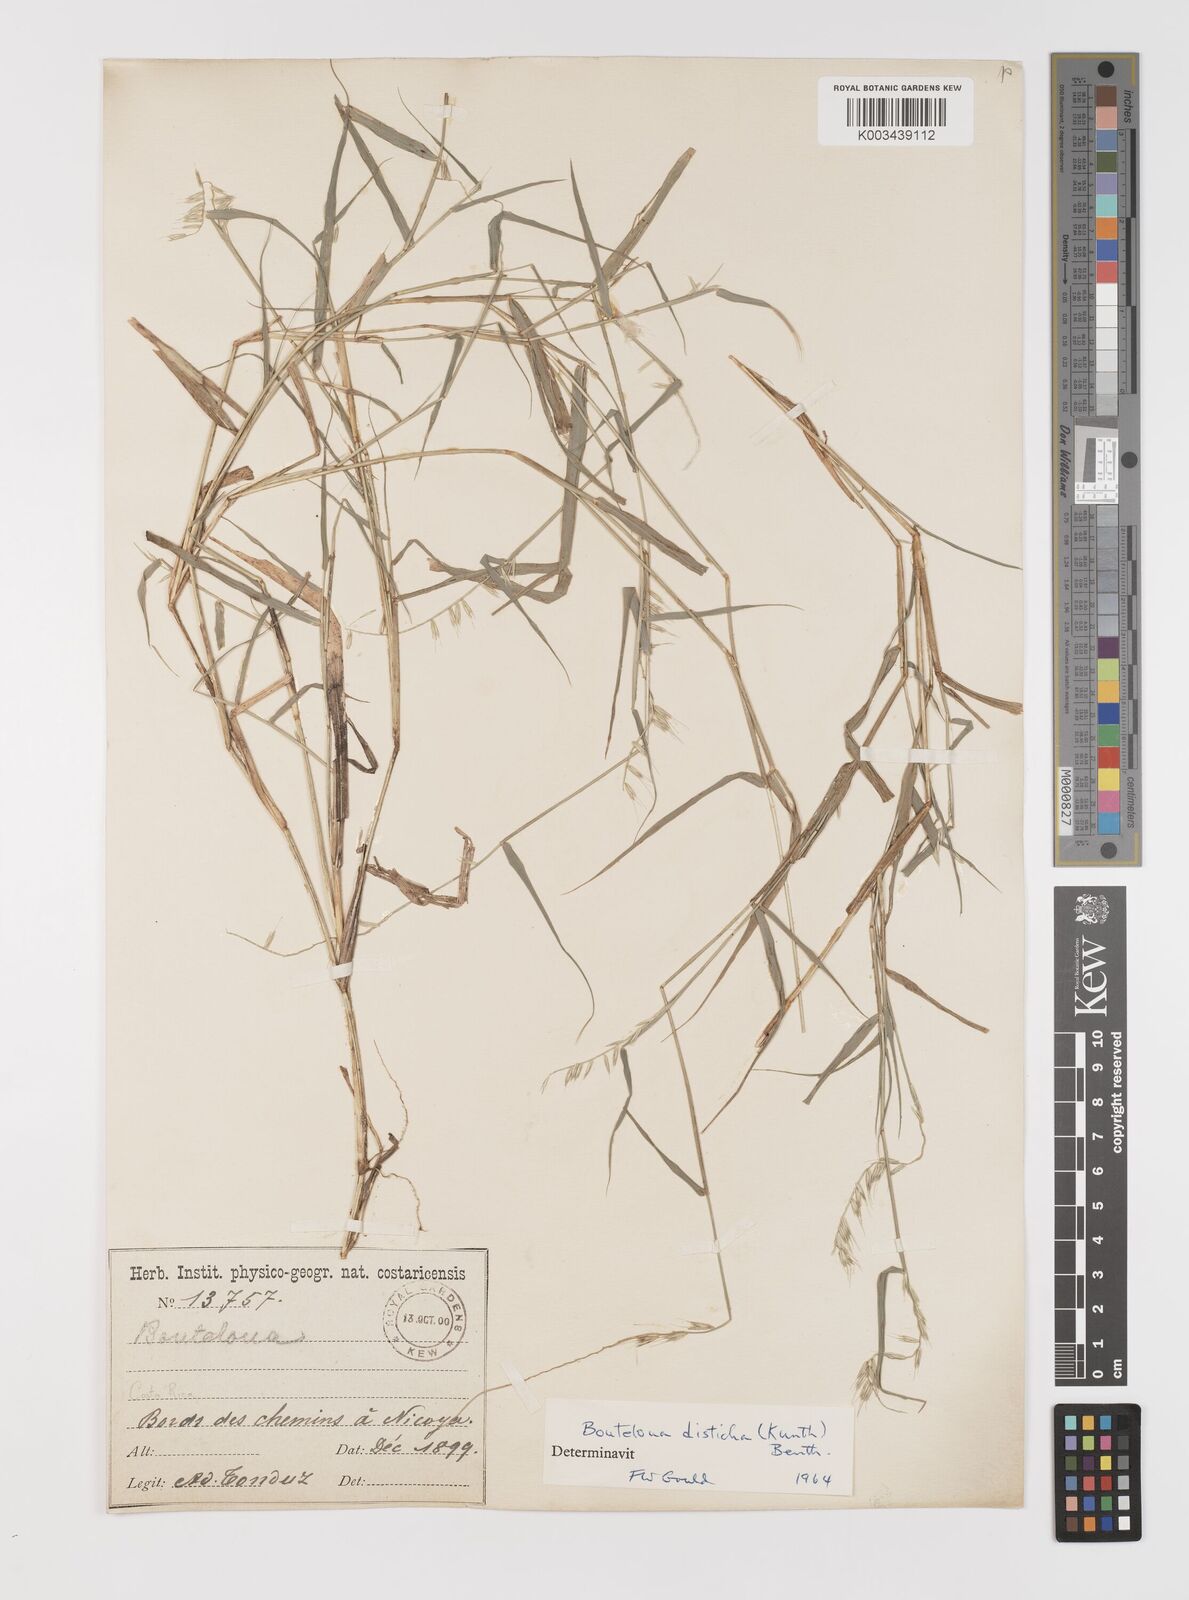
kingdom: Plantae
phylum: Tracheophyta
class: Liliopsida
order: Poales
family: Poaceae
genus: Bouteloua
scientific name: Bouteloua disticha
